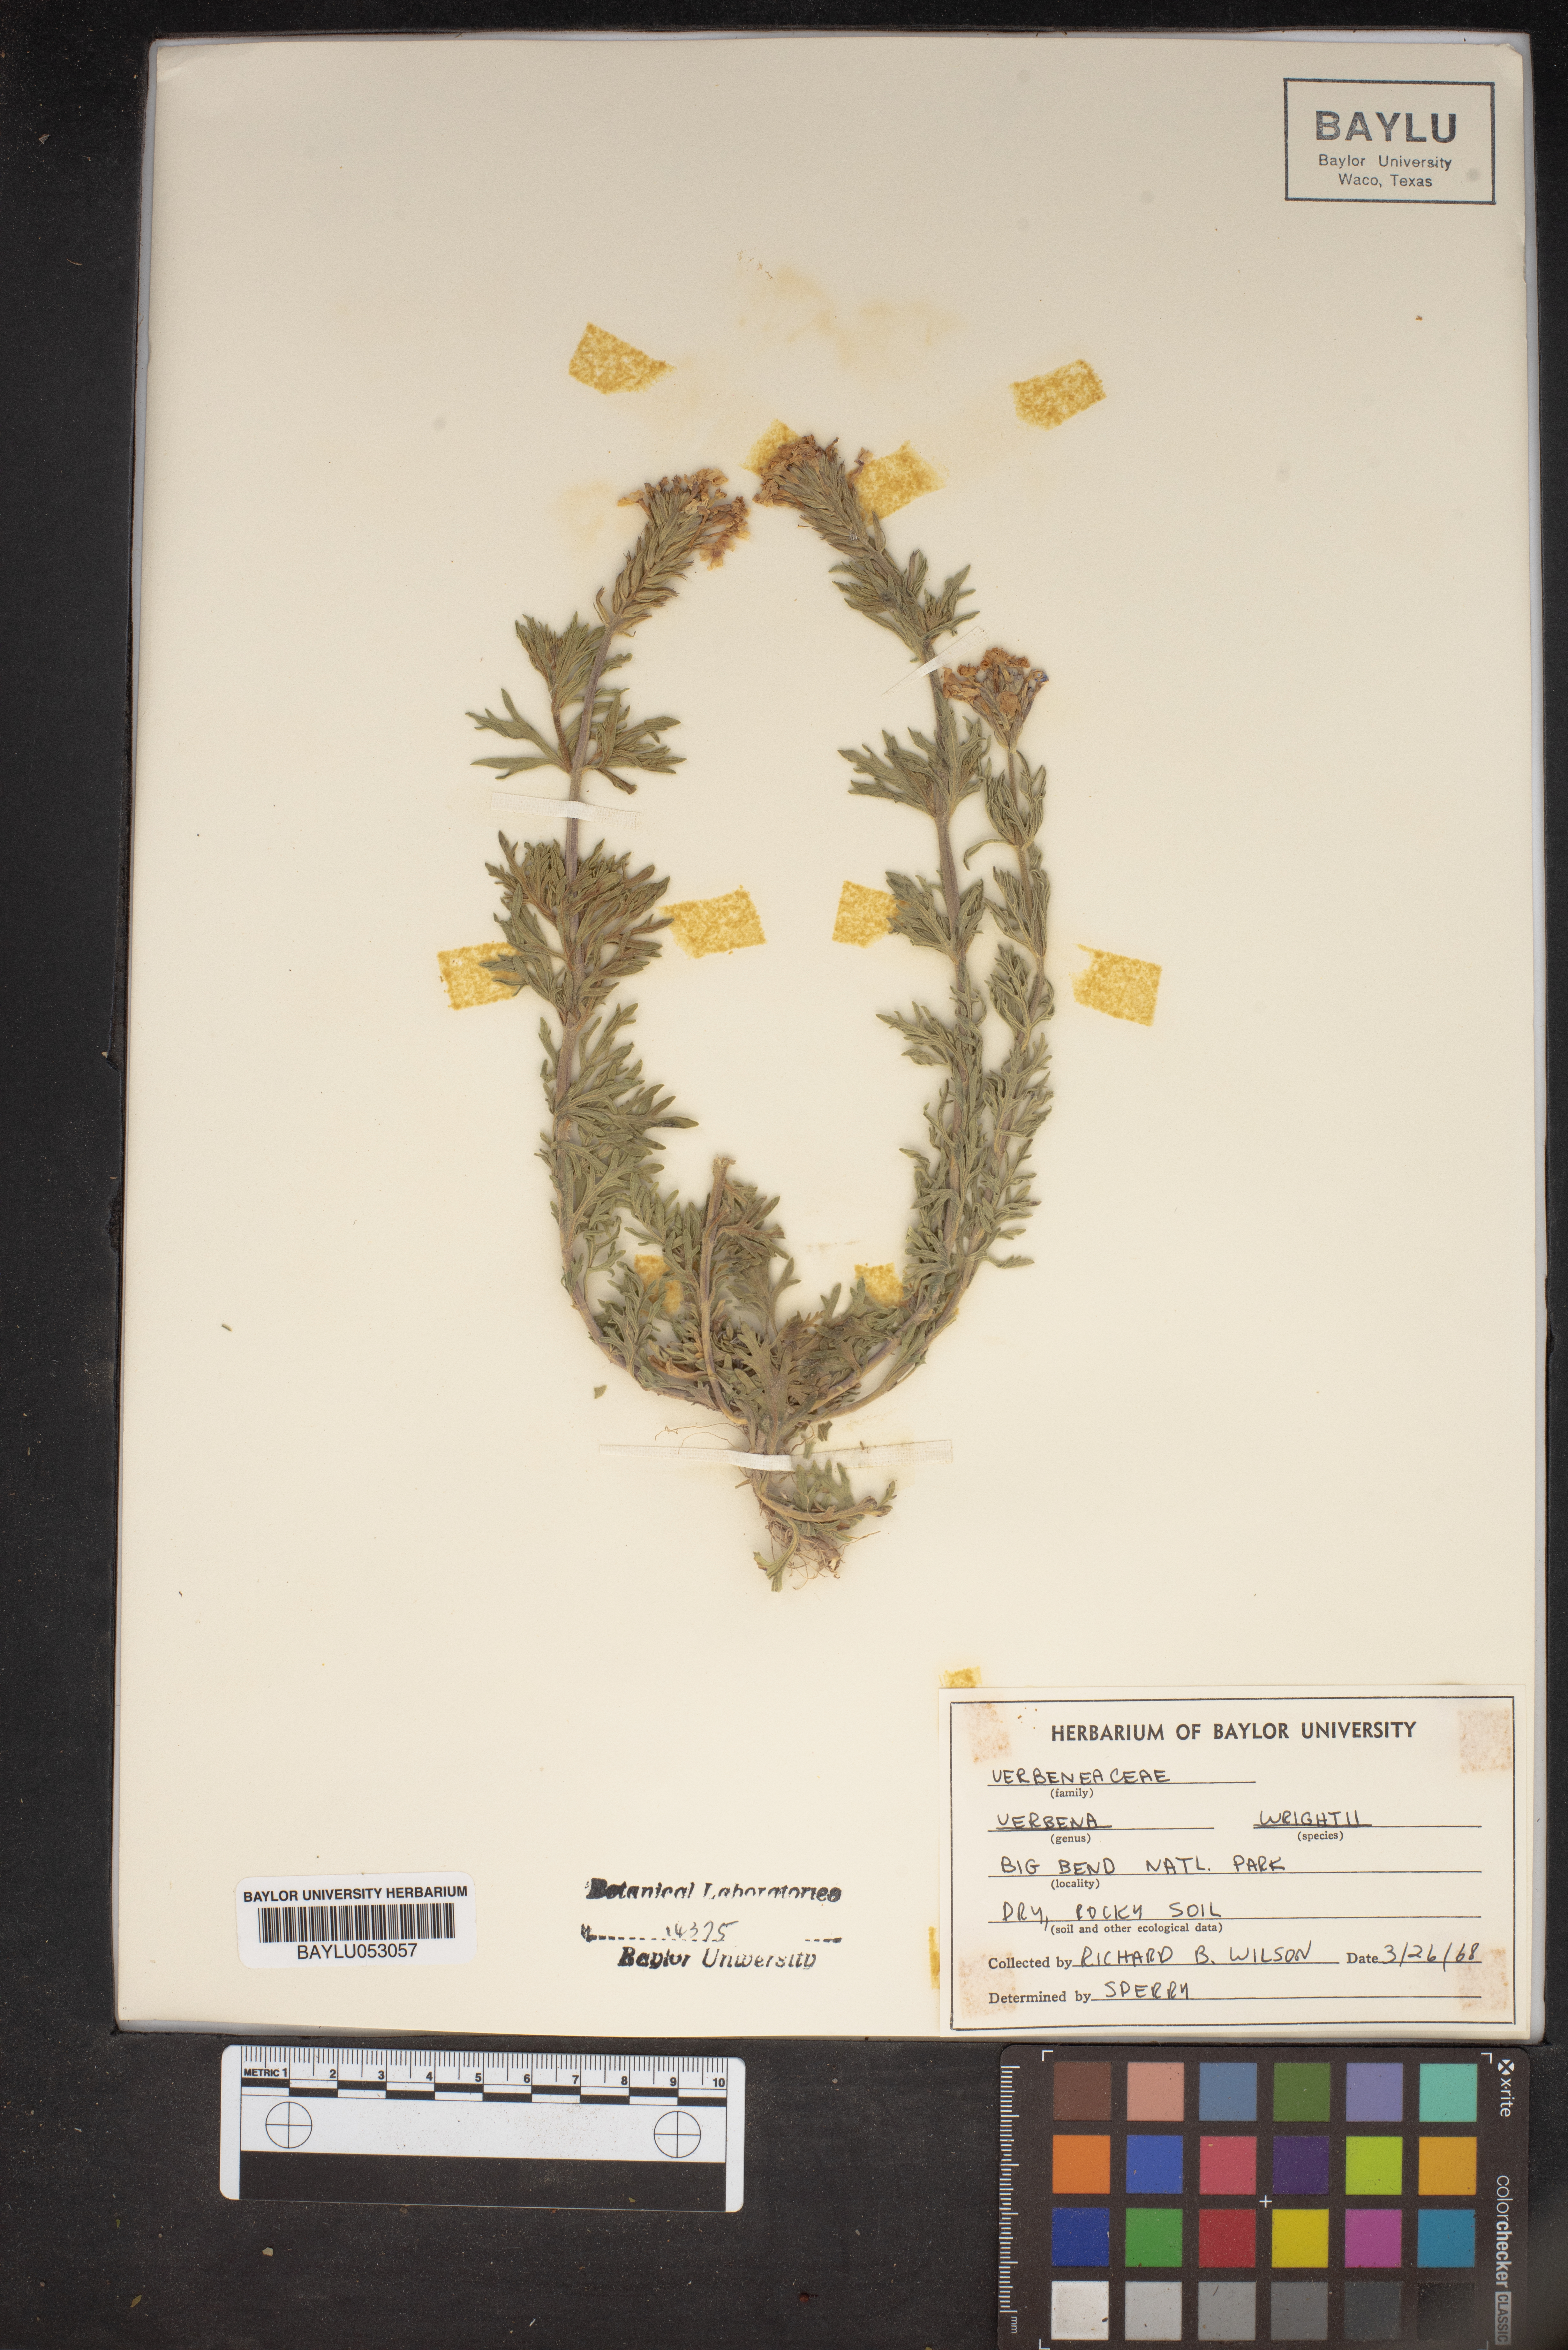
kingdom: Plantae
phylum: Tracheophyta
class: Magnoliopsida
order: Lamiales
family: Verbenaceae
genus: Verbena
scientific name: Verbena bipinnatifida
